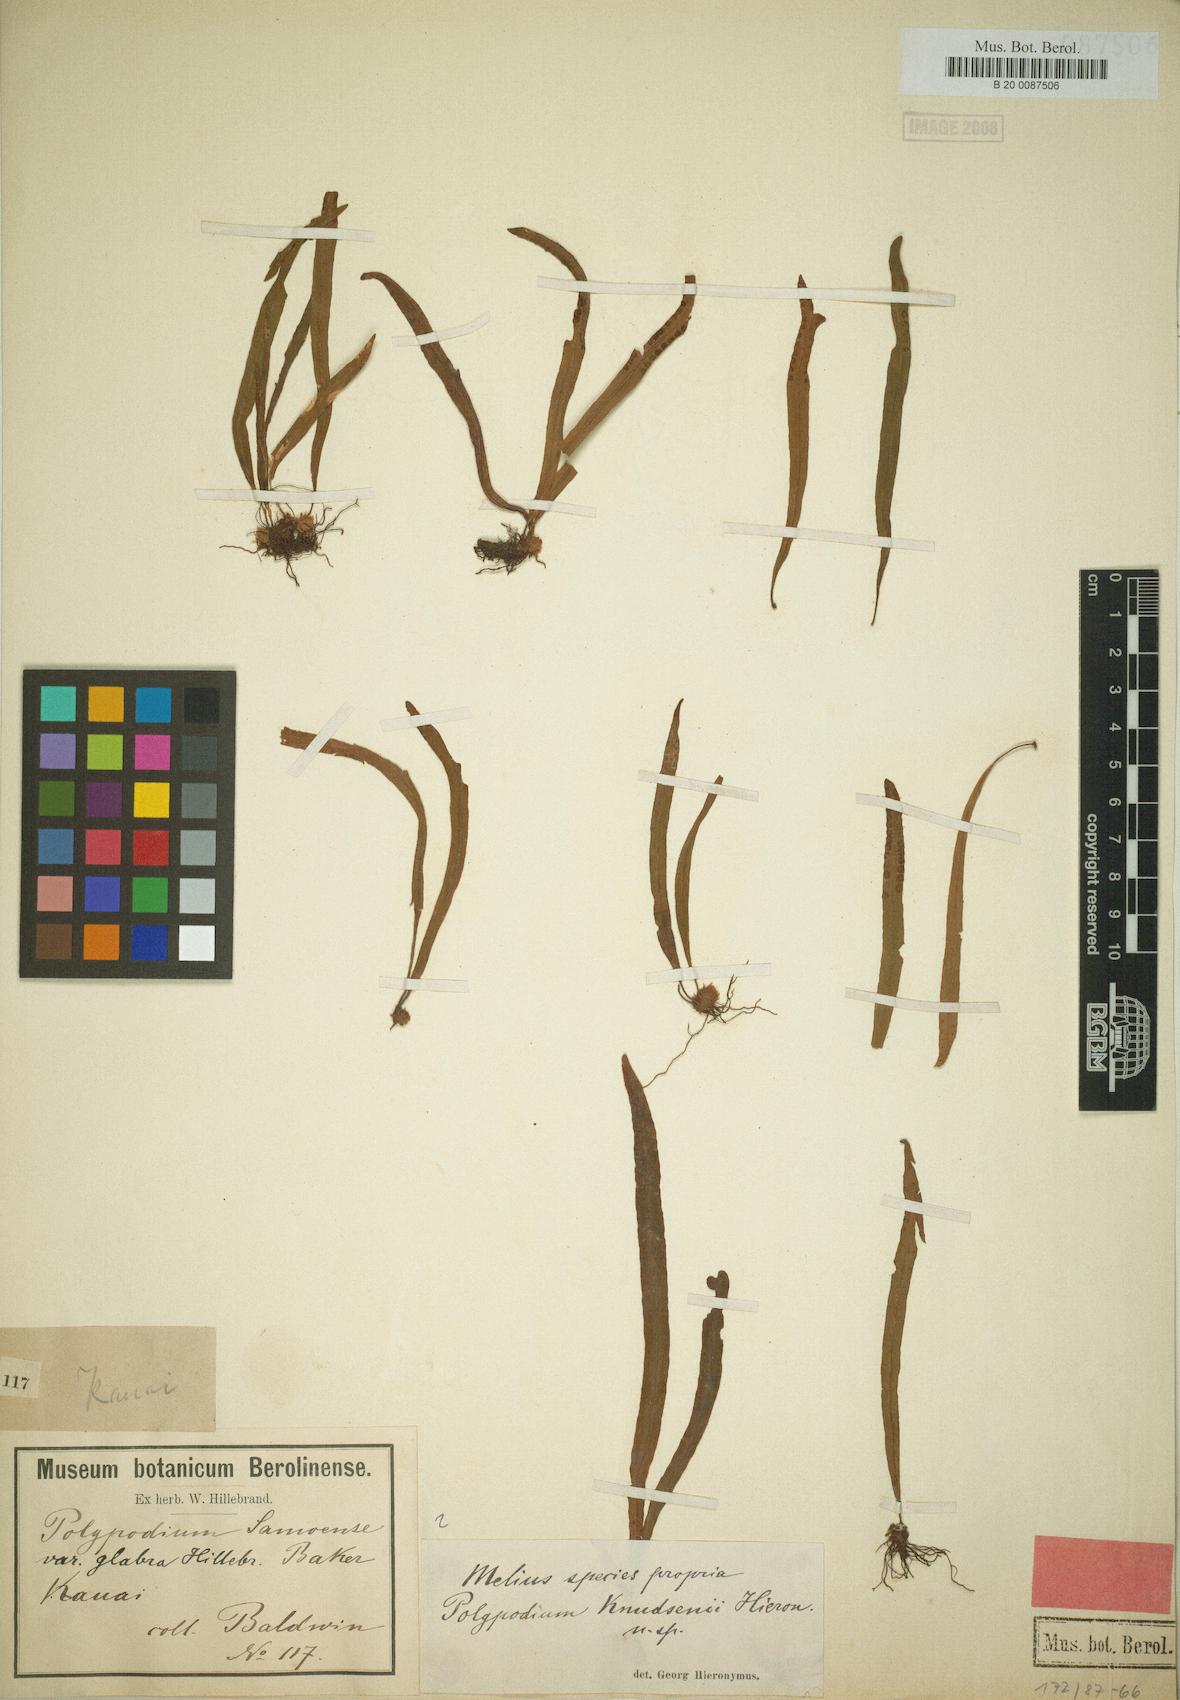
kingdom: Plantae
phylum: Tracheophyta
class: Polypodiopsida
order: Polypodiales
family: Polypodiaceae
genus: Oreogrammitis
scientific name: Oreogrammitis baldwinii
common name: Baldwin's dwarf polypody
